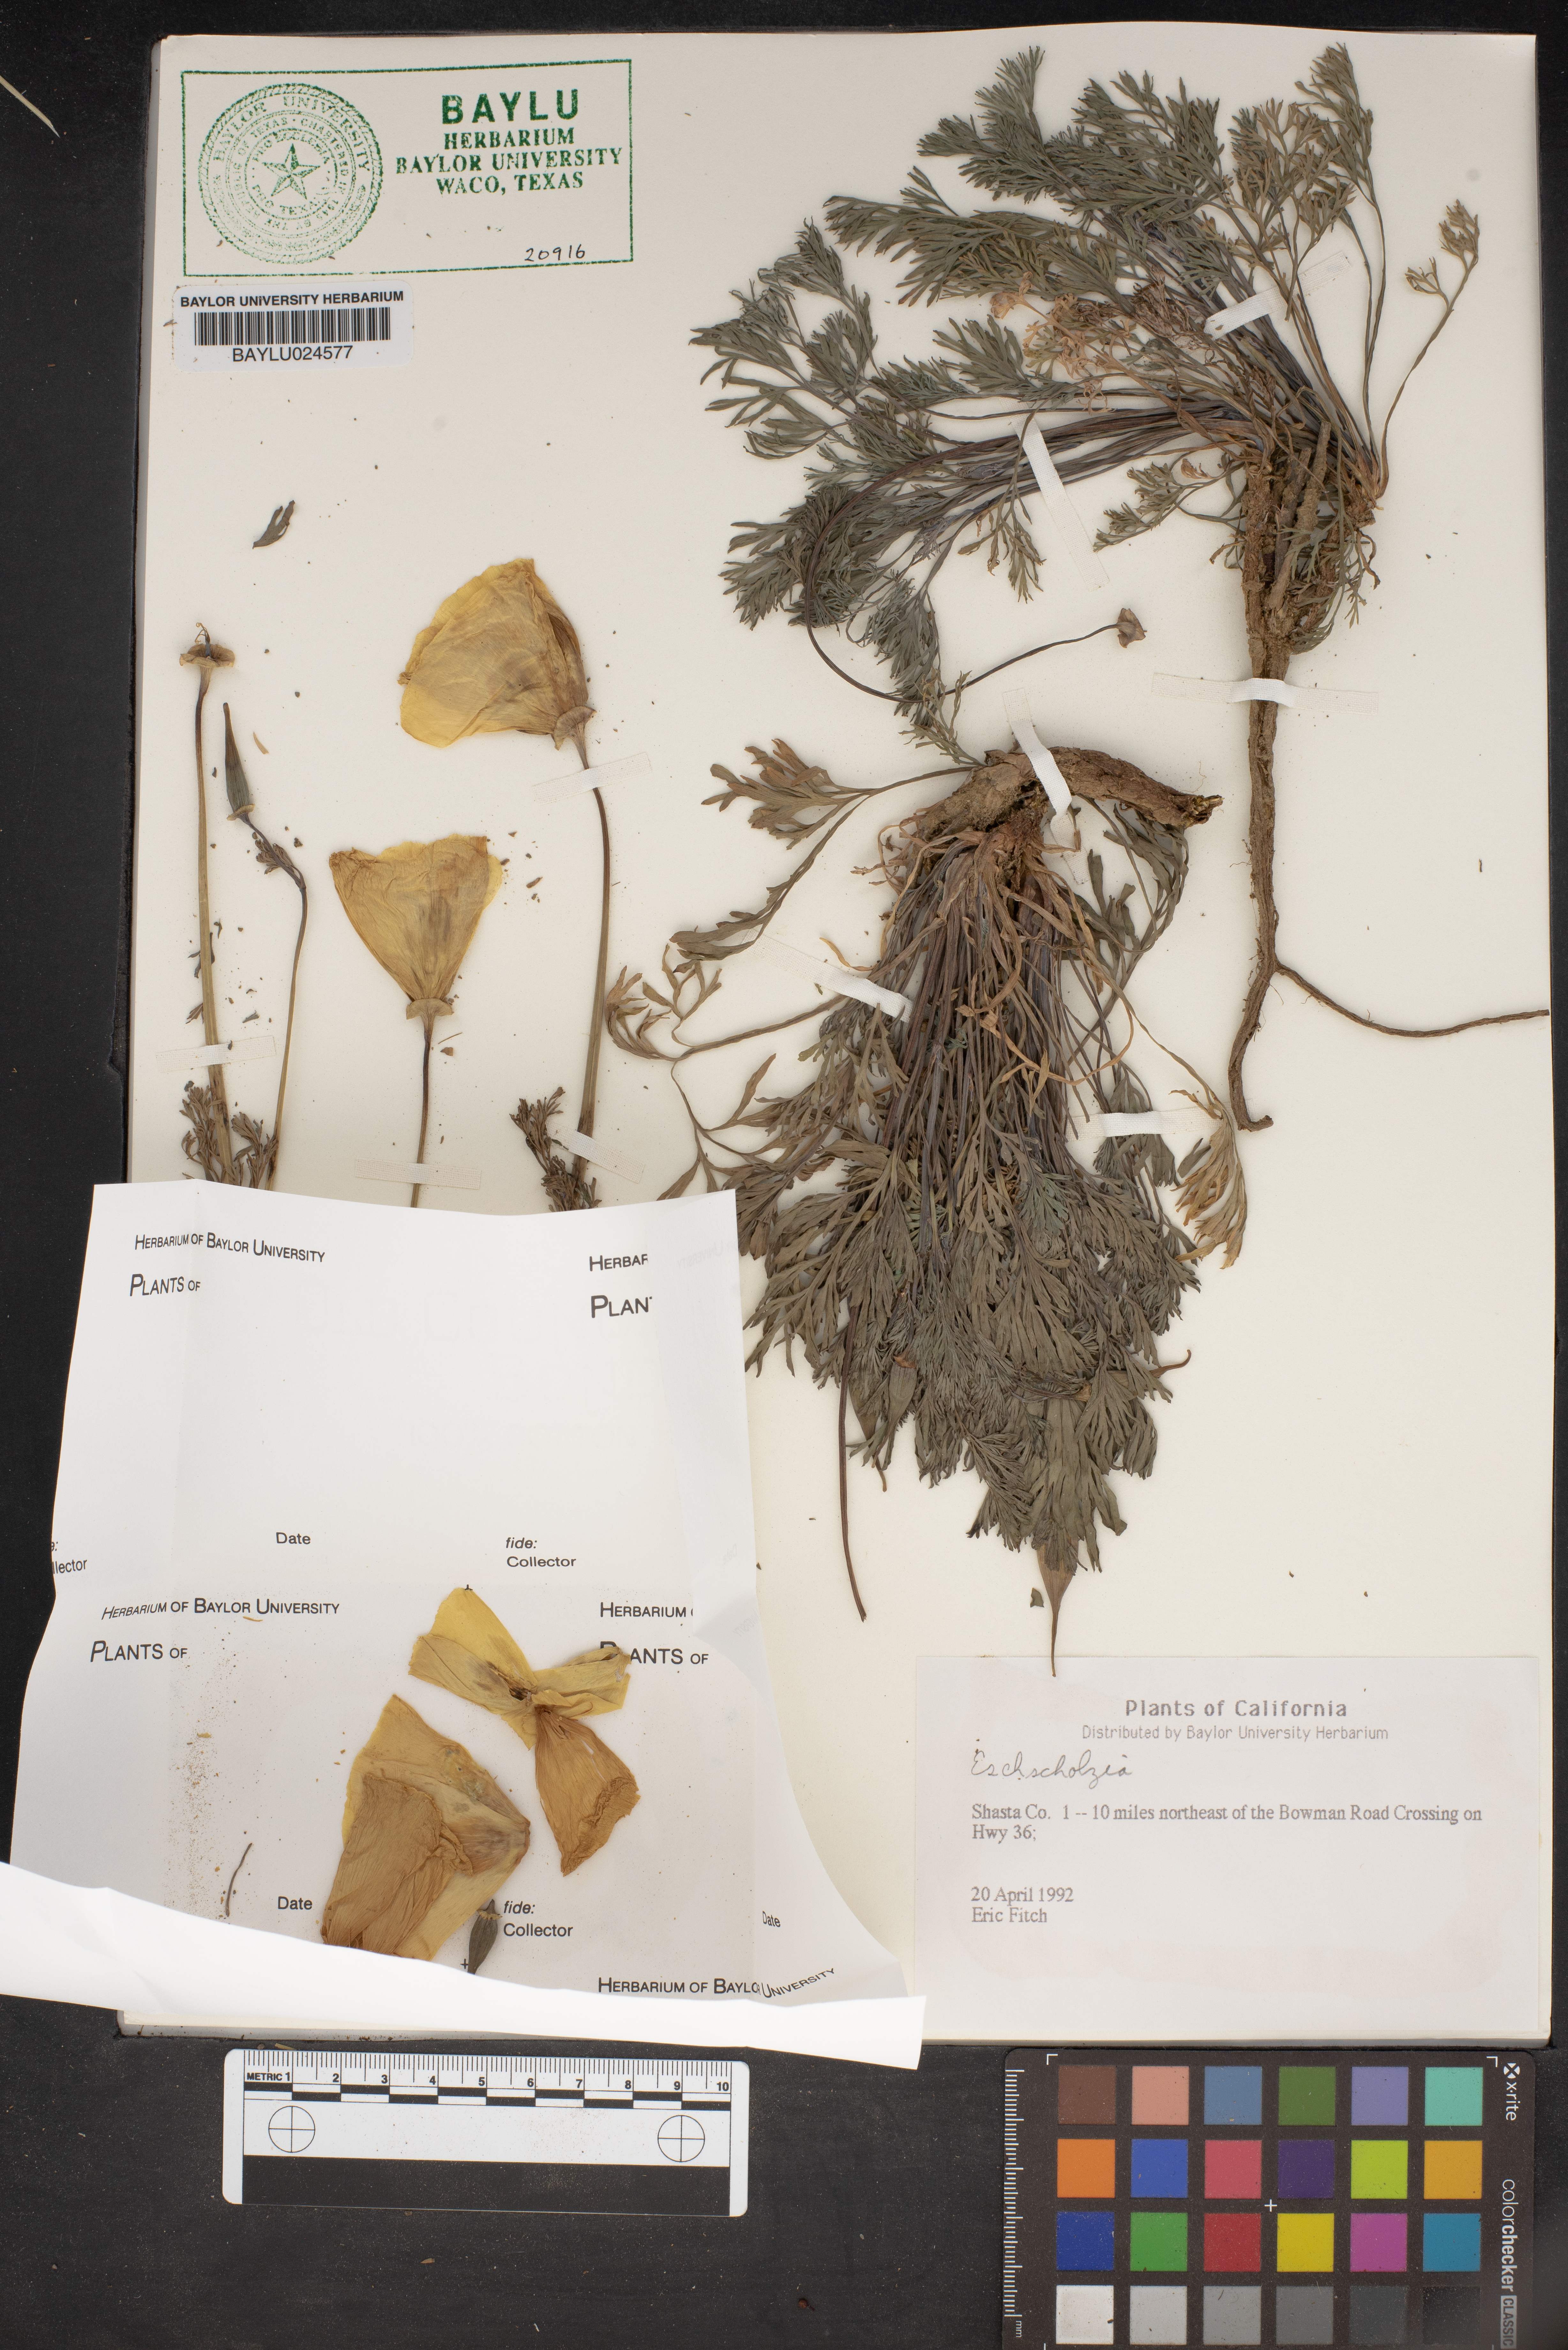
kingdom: Plantae
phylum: Tracheophyta
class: Magnoliopsida
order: Ranunculales
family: Papaveraceae
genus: Eschscholzia
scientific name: Eschscholzia
